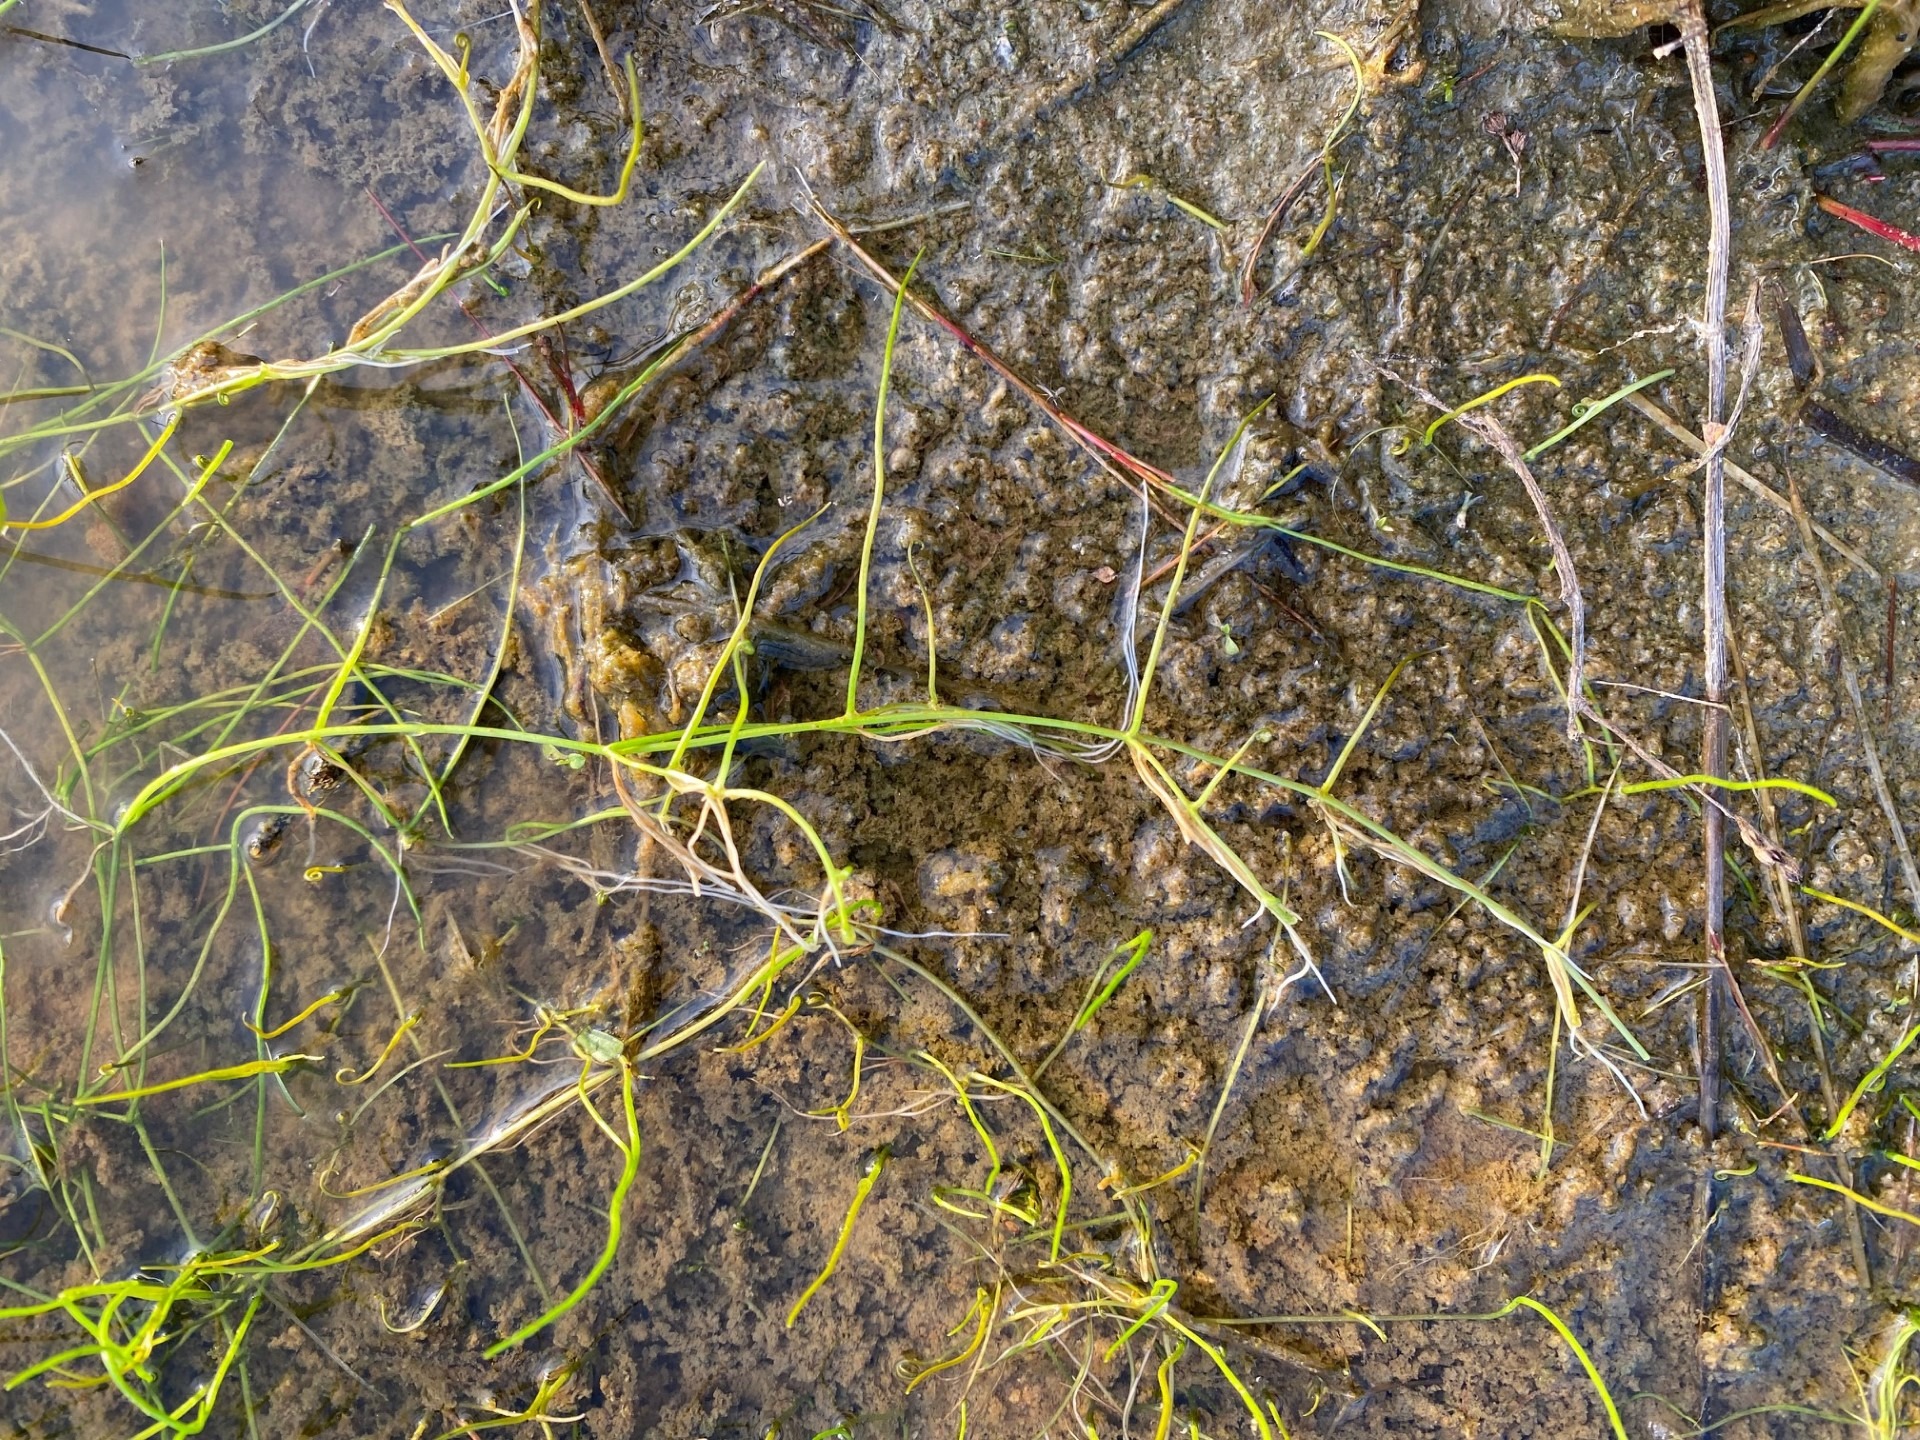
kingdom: Plantae
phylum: Tracheophyta
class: Polypodiopsida
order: Salviniales
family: Marsileaceae
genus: Pilularia
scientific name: Pilularia globulifera
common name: Pilledrager
